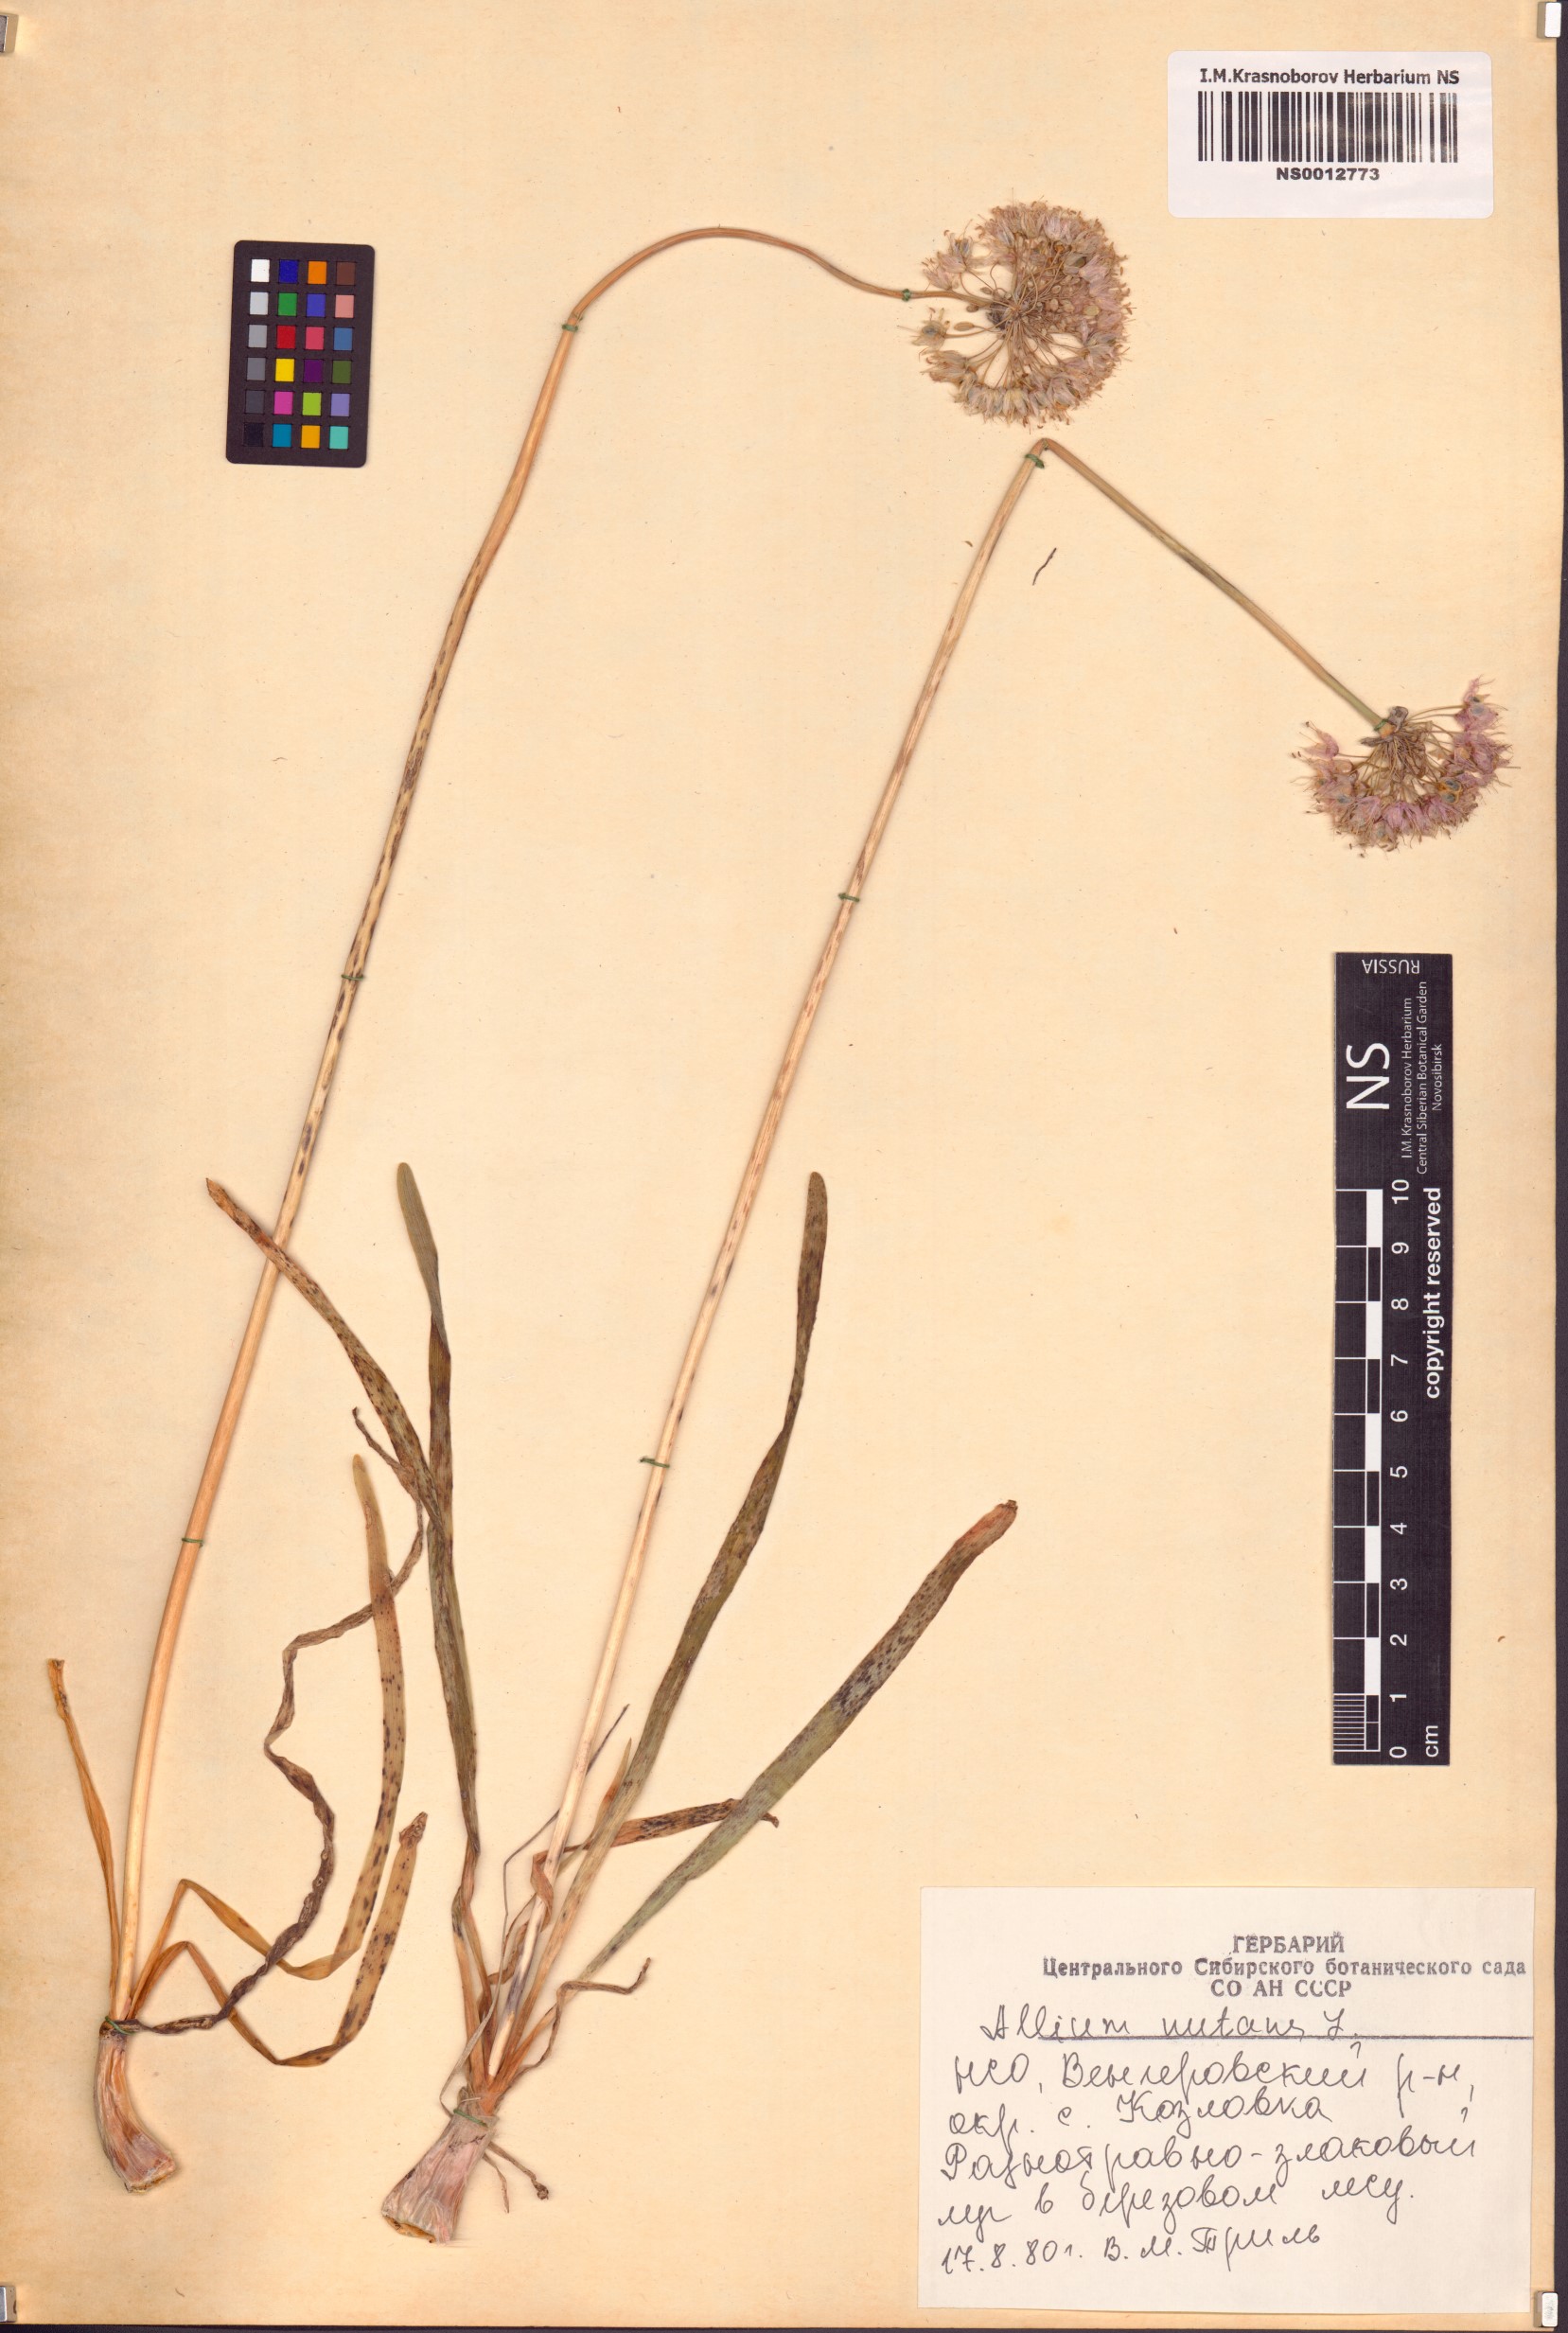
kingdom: Plantae
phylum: Tracheophyta
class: Liliopsida
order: Asparagales
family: Amaryllidaceae
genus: Allium
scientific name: Allium nutans
